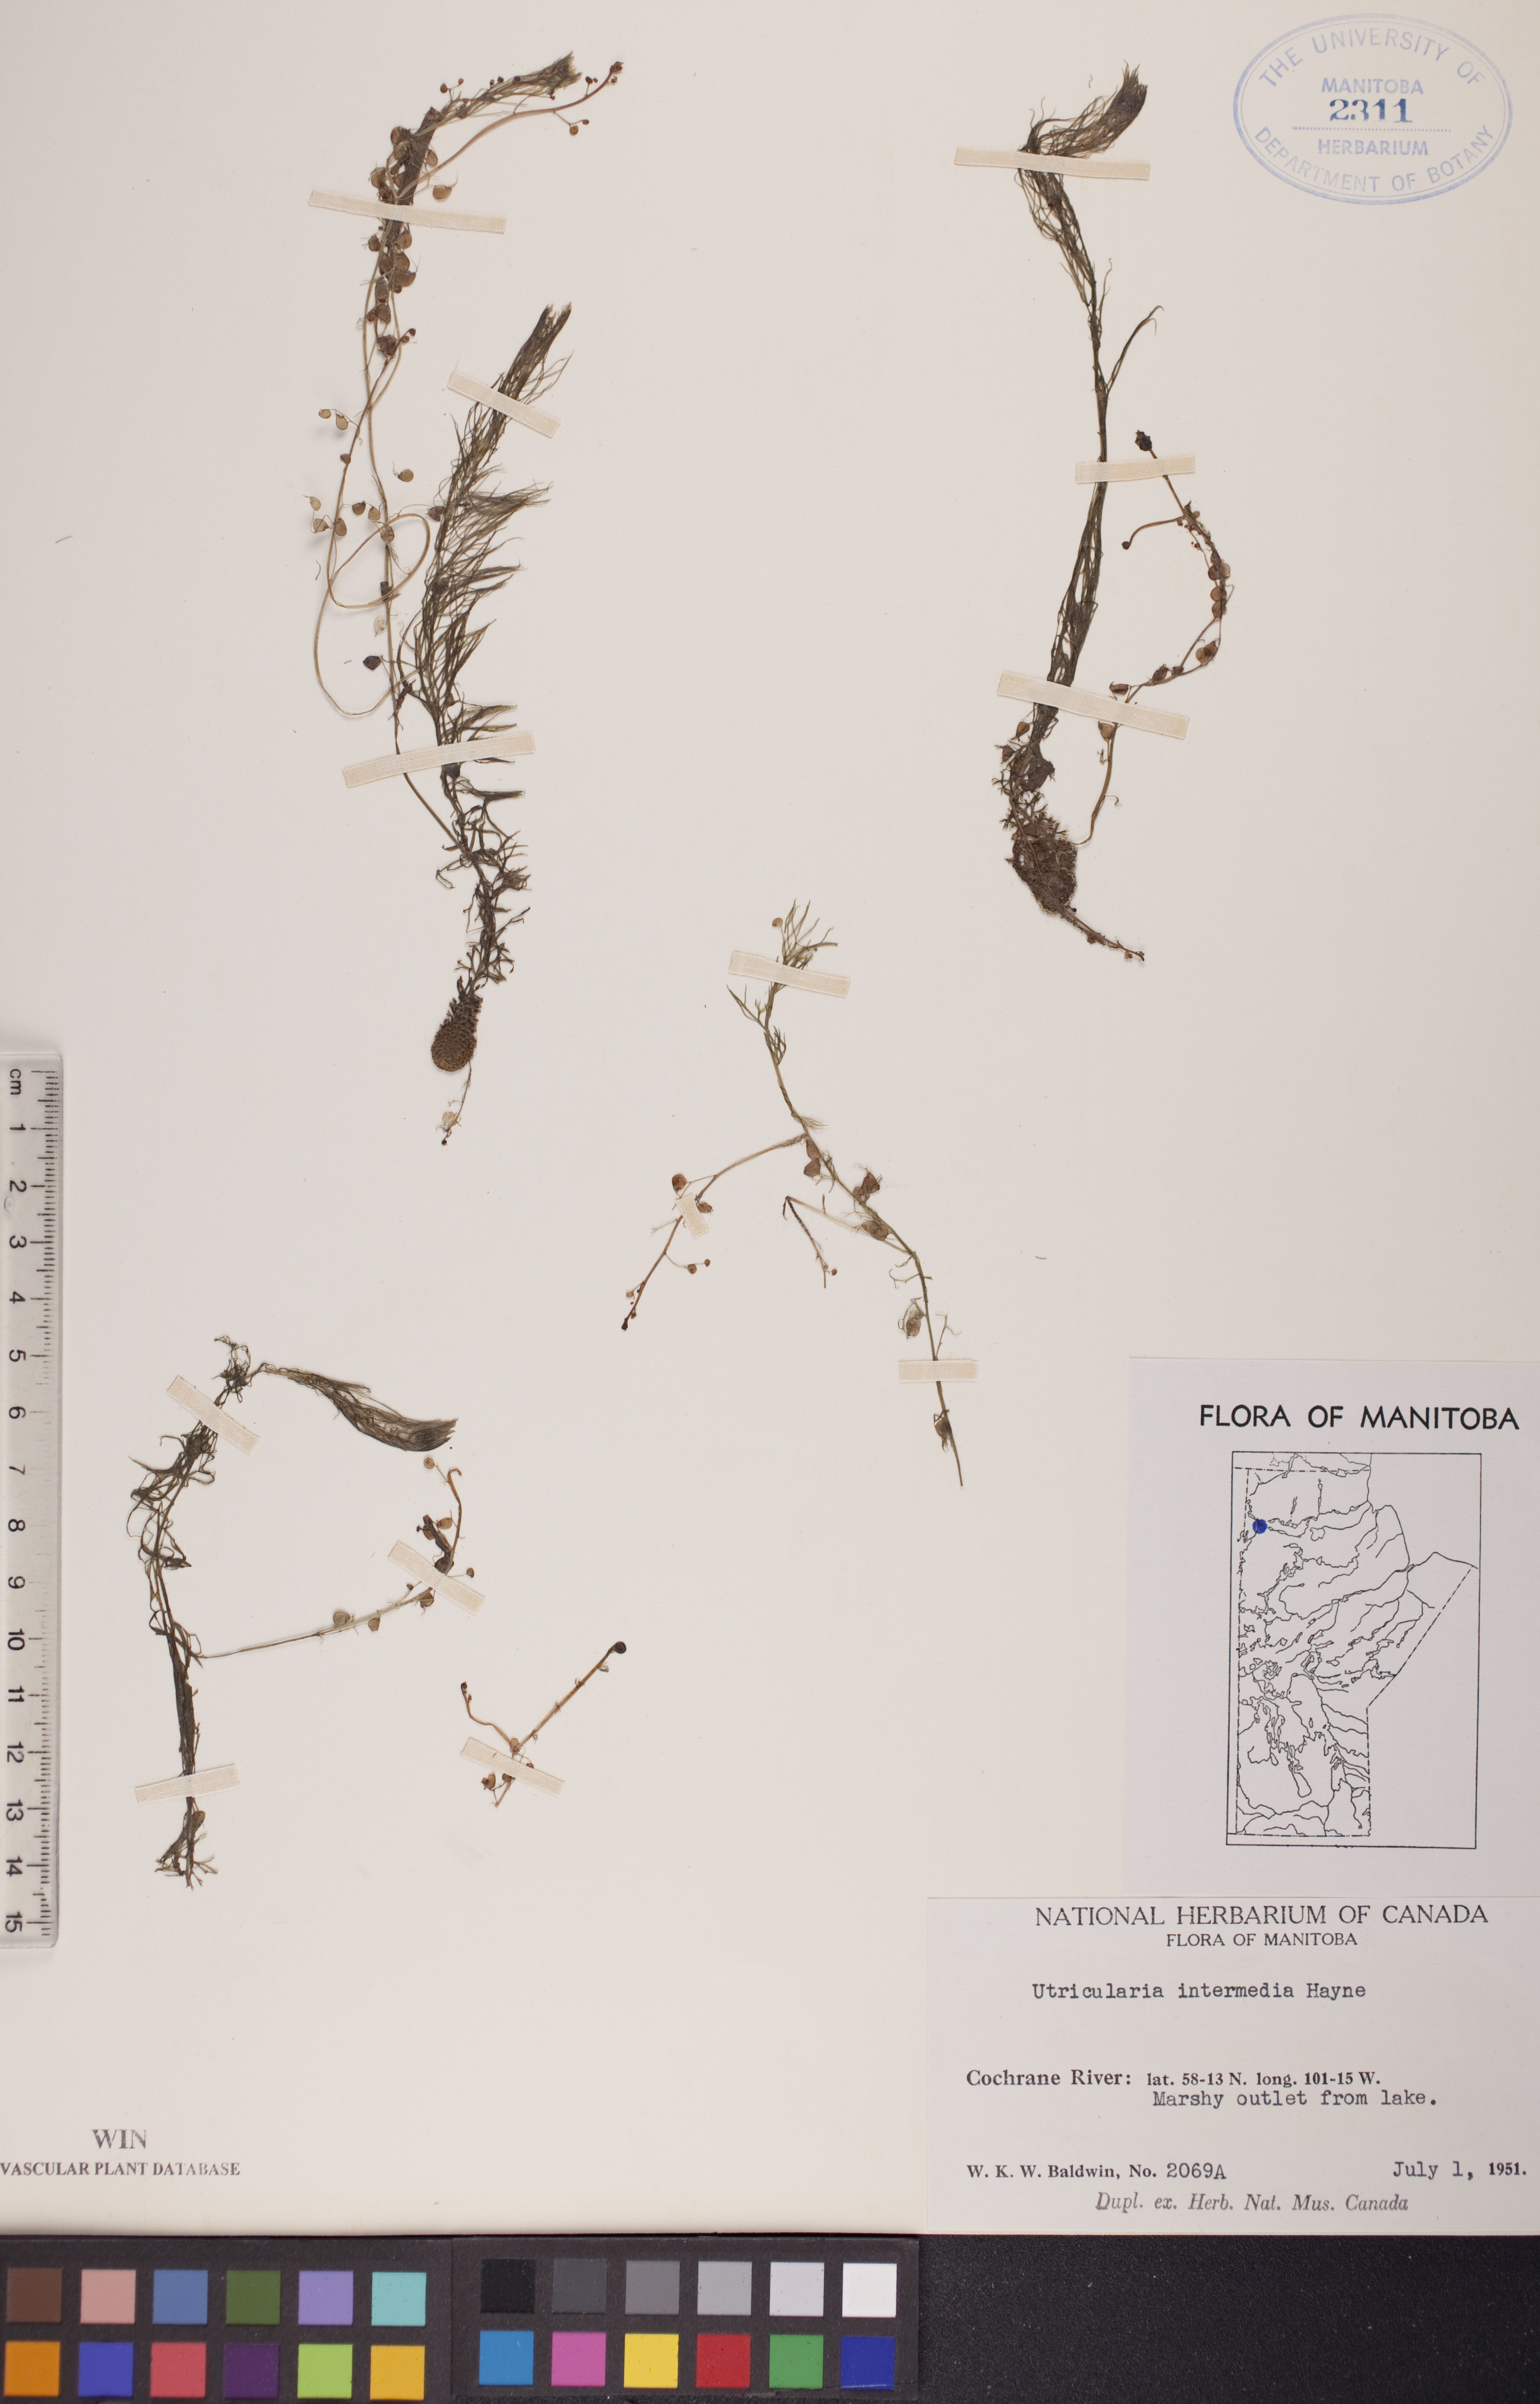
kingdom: Plantae
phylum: Tracheophyta
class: Magnoliopsida
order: Lamiales
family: Lentibulariaceae
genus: Utricularia
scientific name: Utricularia intermedia
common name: Intermediate bladderwort
